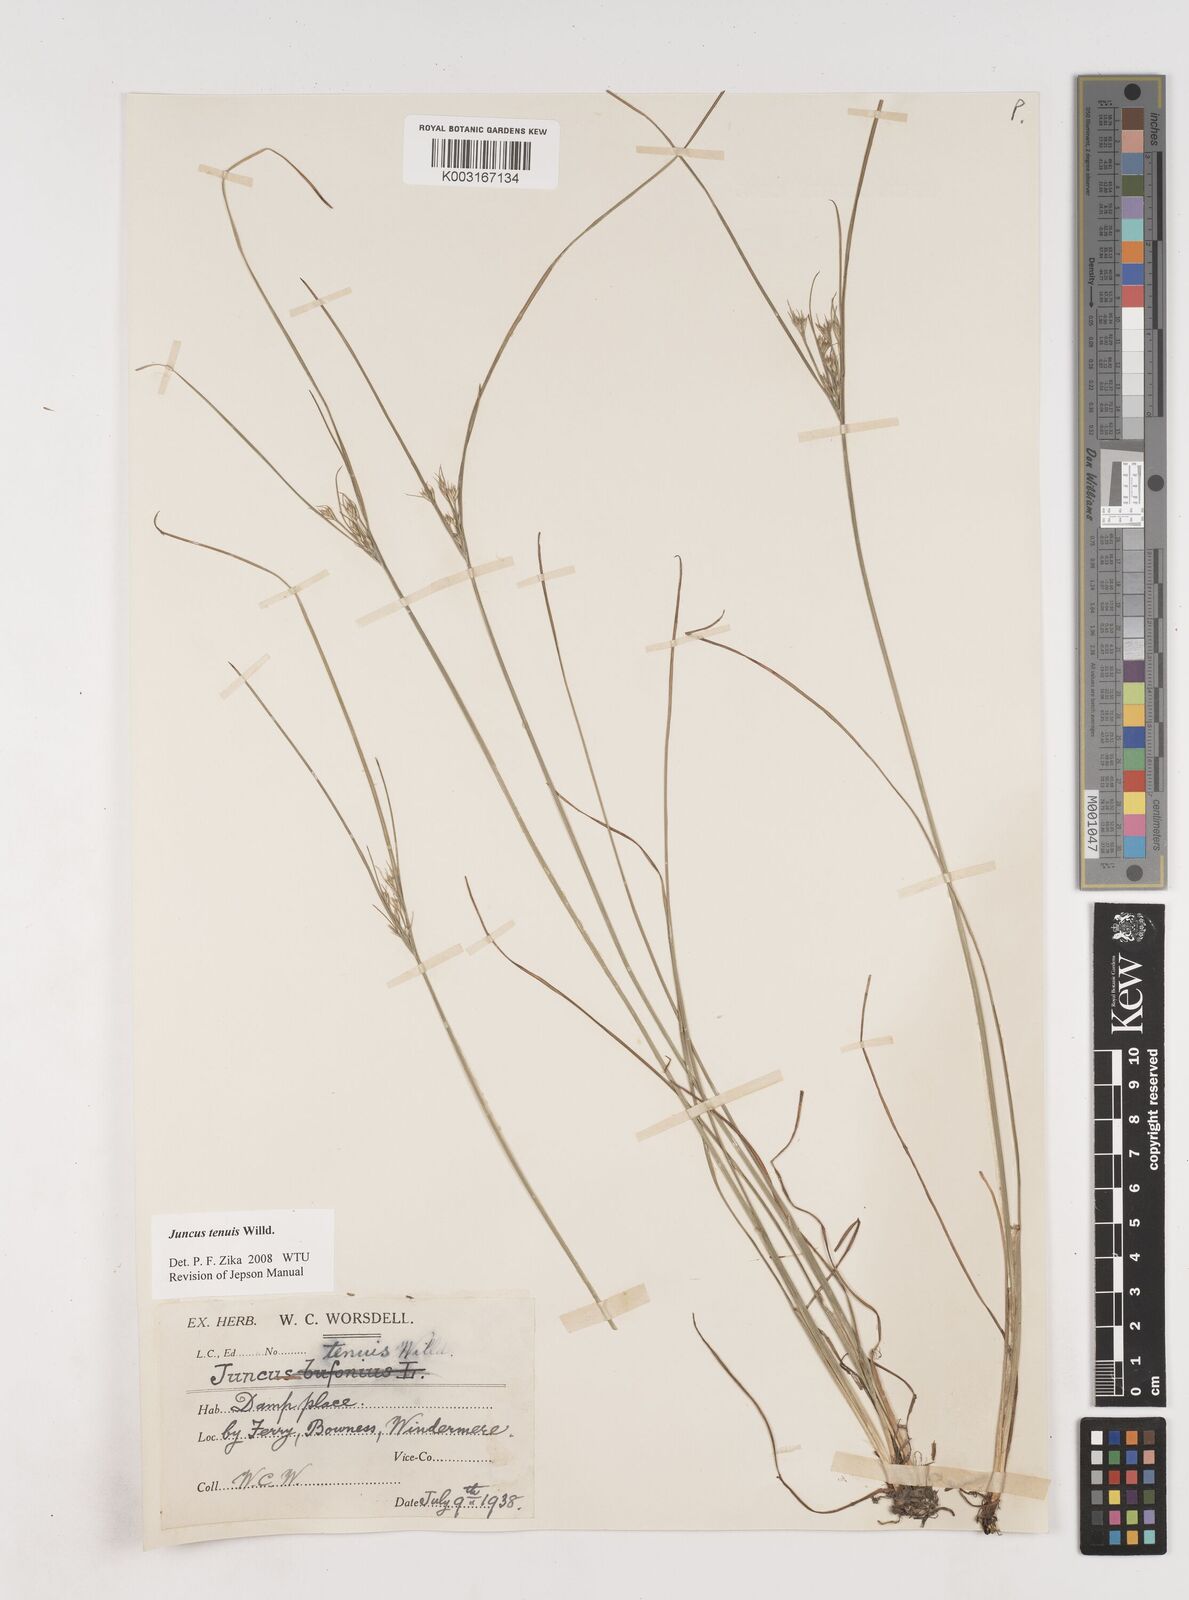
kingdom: Plantae
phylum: Tracheophyta
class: Liliopsida
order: Poales
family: Juncaceae
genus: Juncus
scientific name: Juncus tenuis
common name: Slender rush
